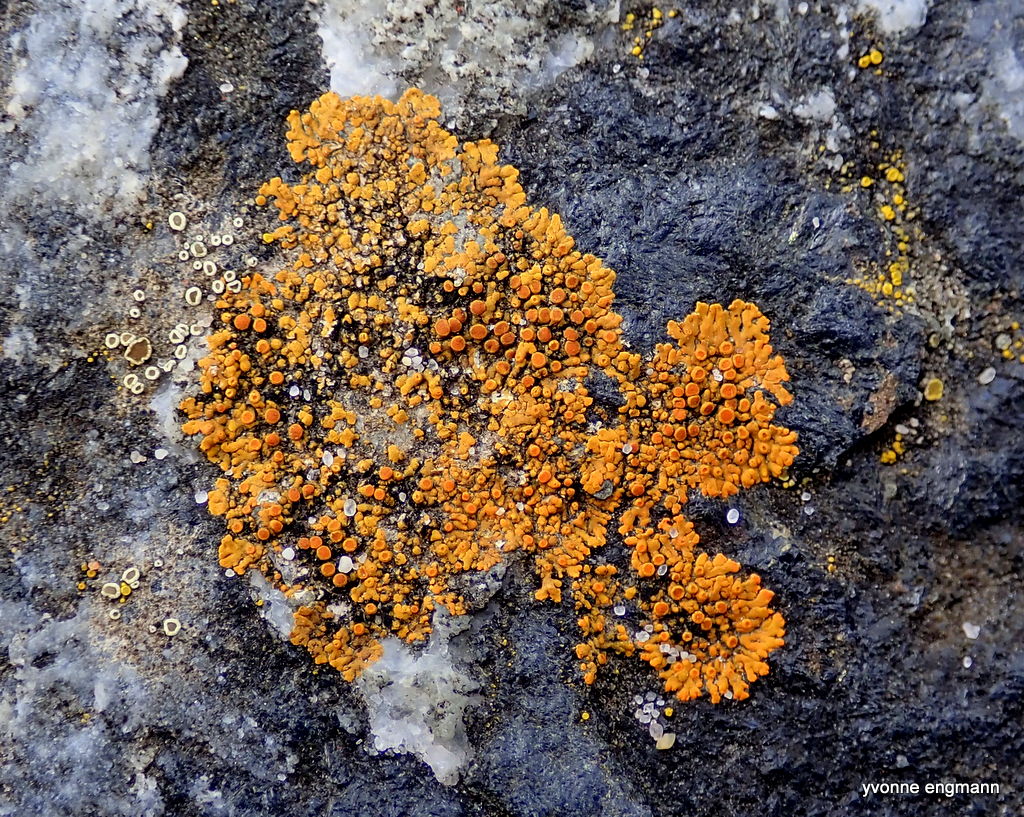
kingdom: Fungi
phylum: Ascomycota
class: Lecanoromycetes
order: Teloschistales
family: Teloschistaceae
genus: Calogaya
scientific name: Calogaya arnoldii
